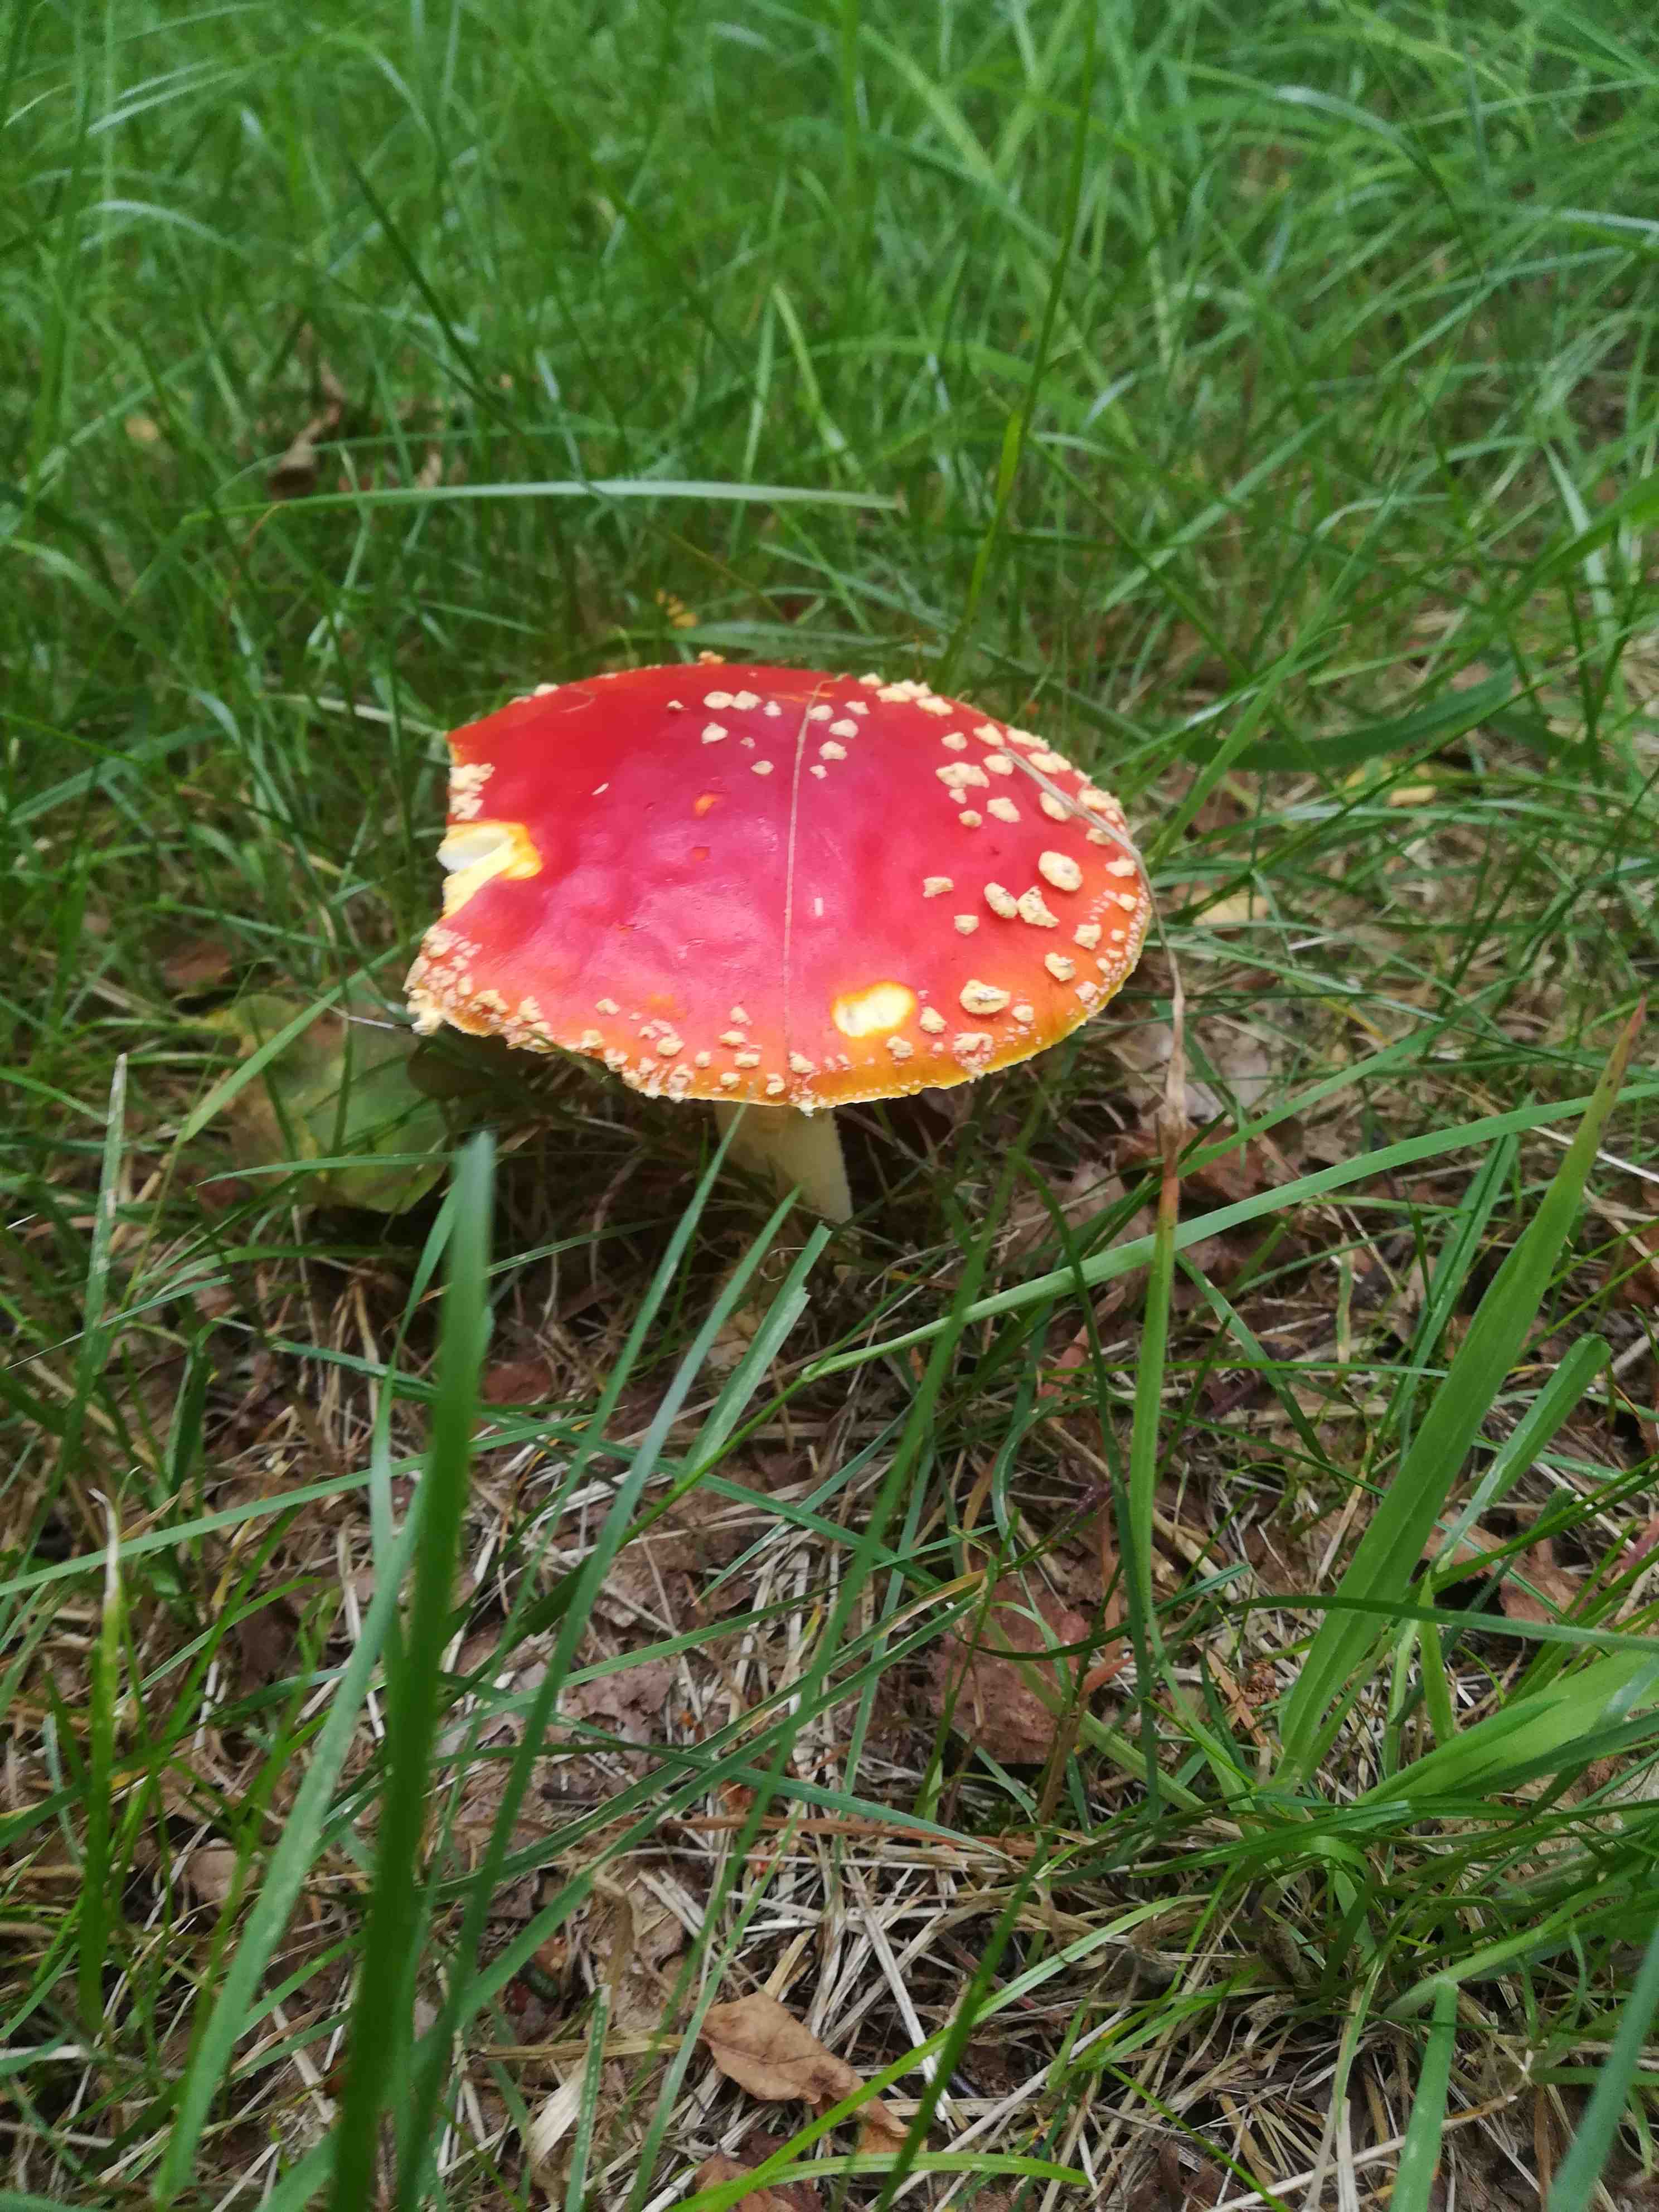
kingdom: Fungi
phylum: Basidiomycota
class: Agaricomycetes
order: Agaricales
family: Amanitaceae
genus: Amanita
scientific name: Amanita muscaria
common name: rød fluesvamp
